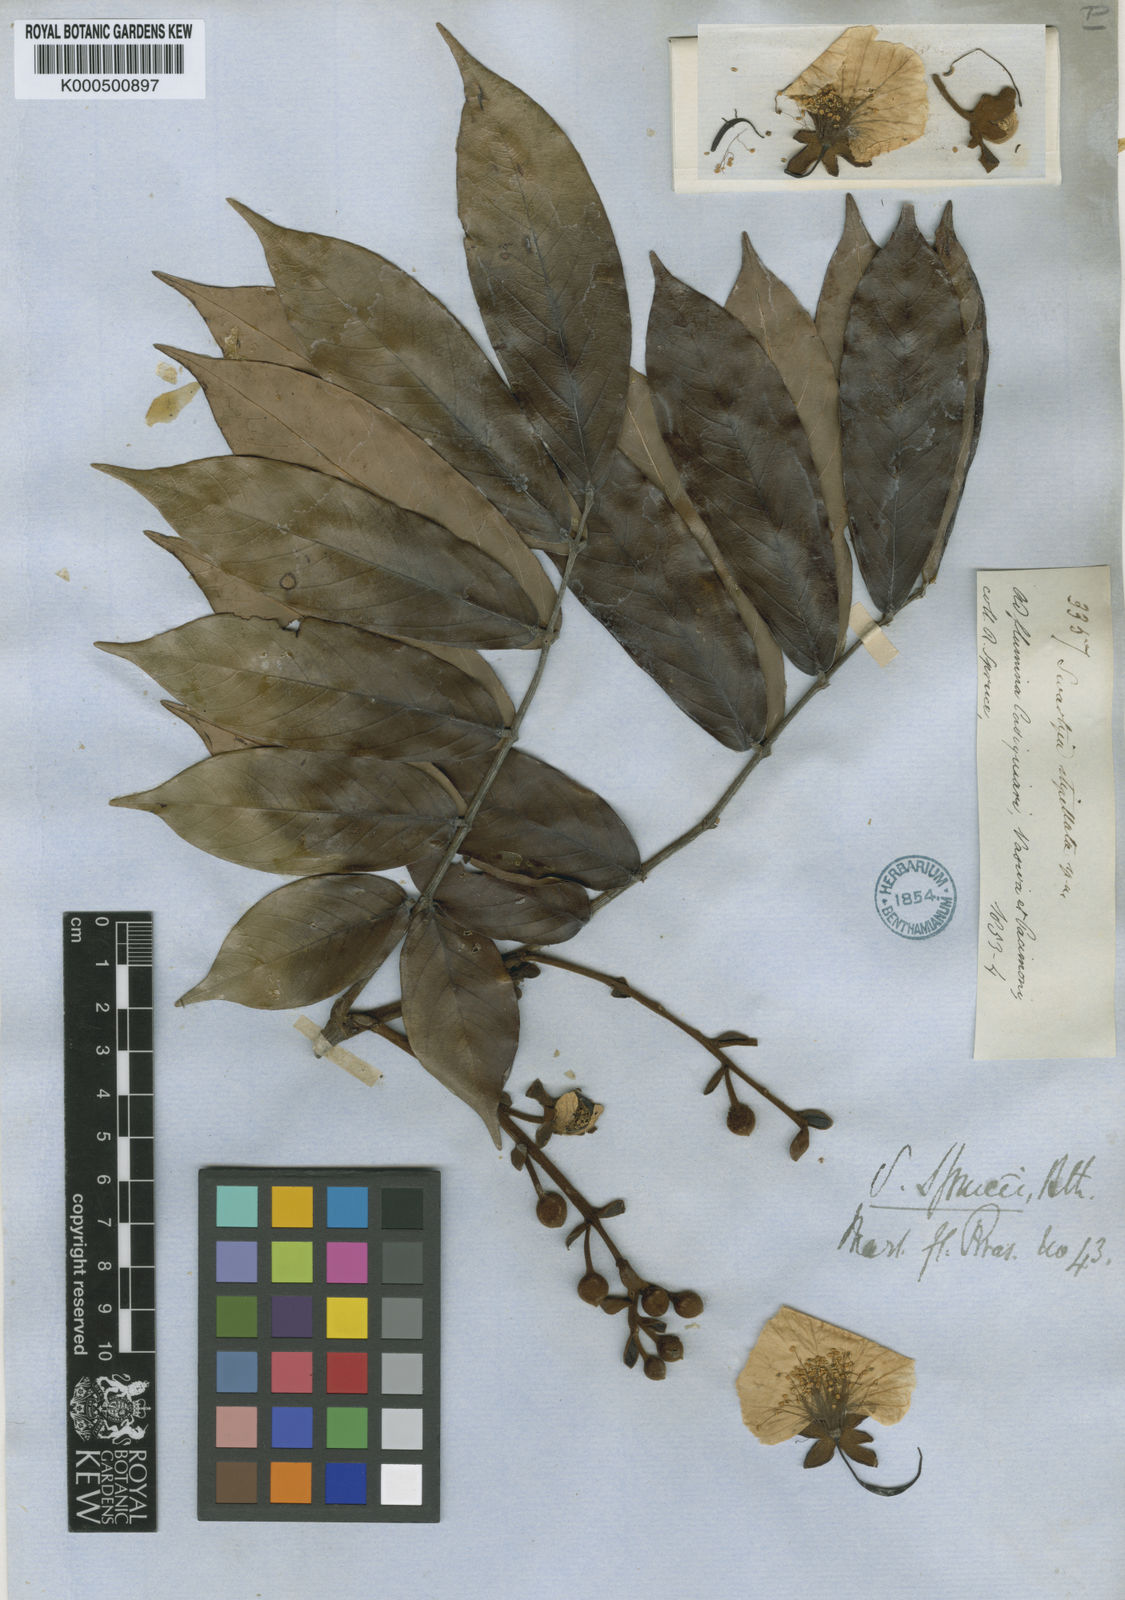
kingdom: Plantae
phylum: Tracheophyta
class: Magnoliopsida
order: Fabales
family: Fabaceae
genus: Swartzia
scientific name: Swartzia sprucei
